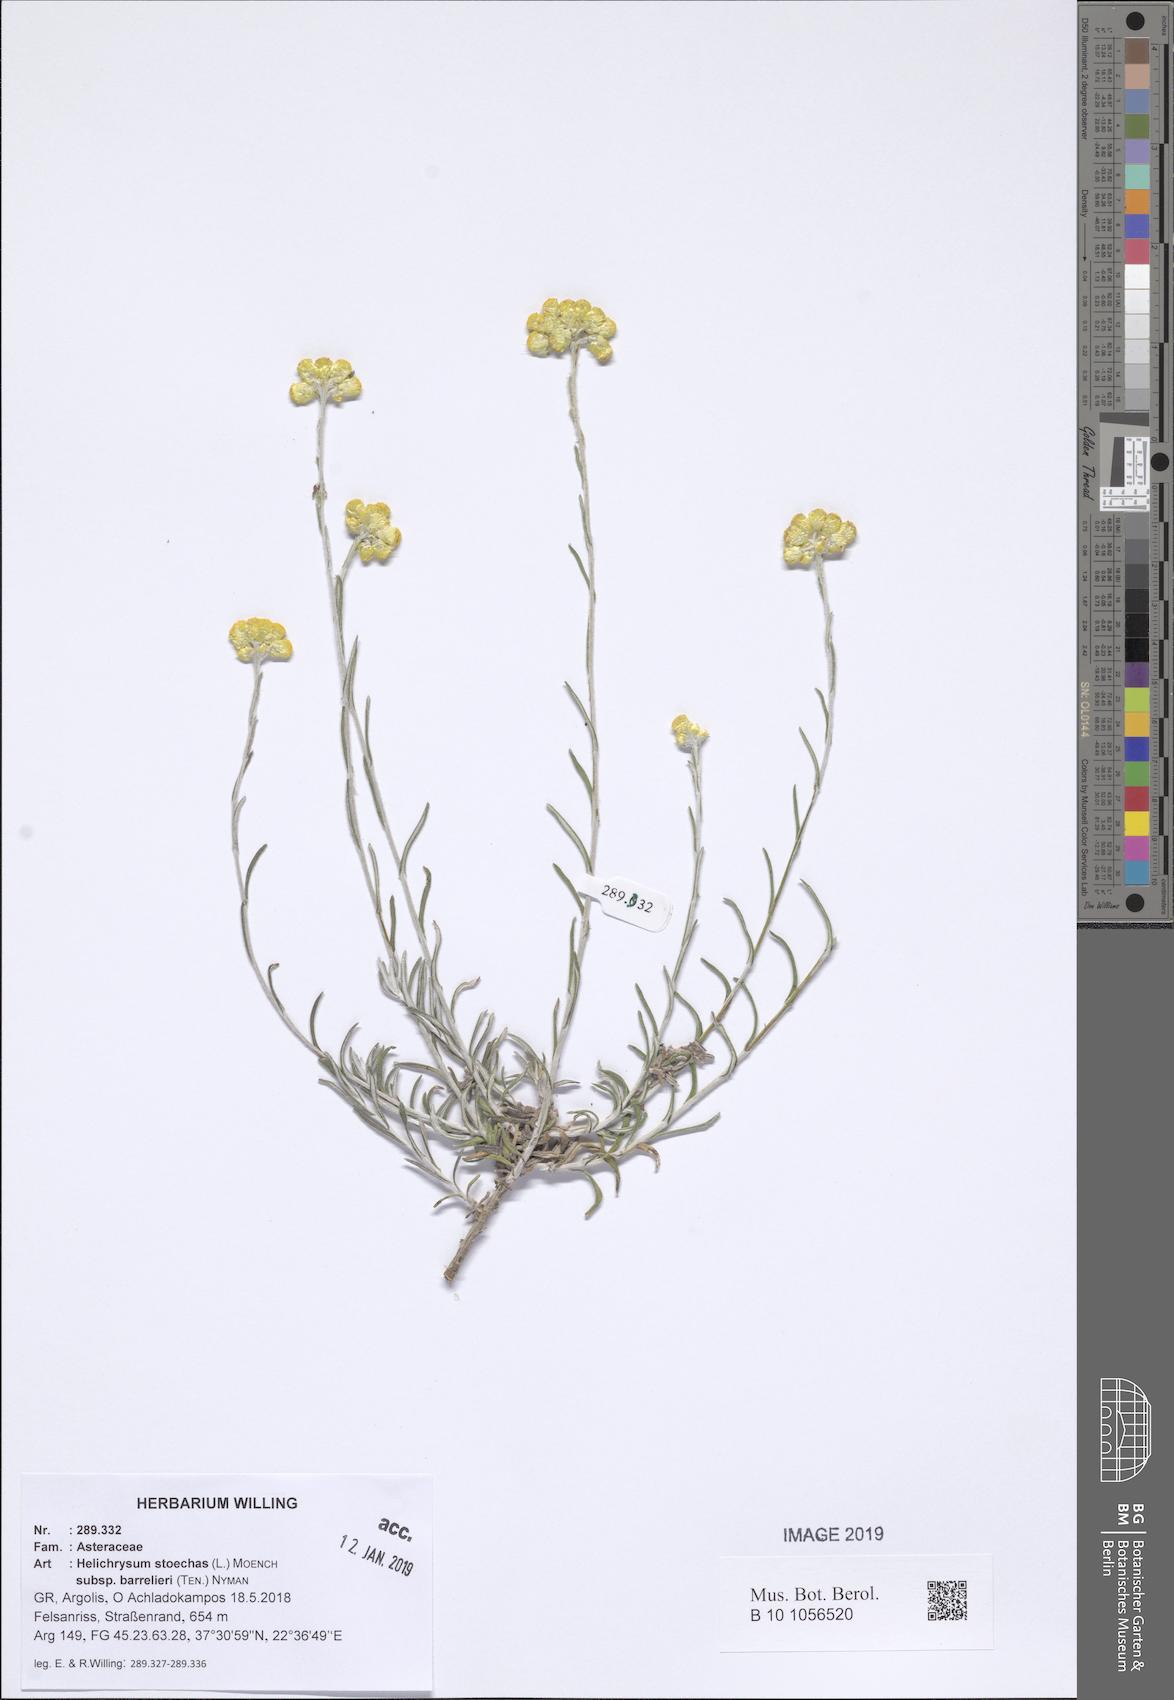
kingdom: Plantae
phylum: Tracheophyta
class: Magnoliopsida
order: Asterales
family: Asteraceae
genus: Helichrysum
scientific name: Helichrysum stoechas
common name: Goldilocks
